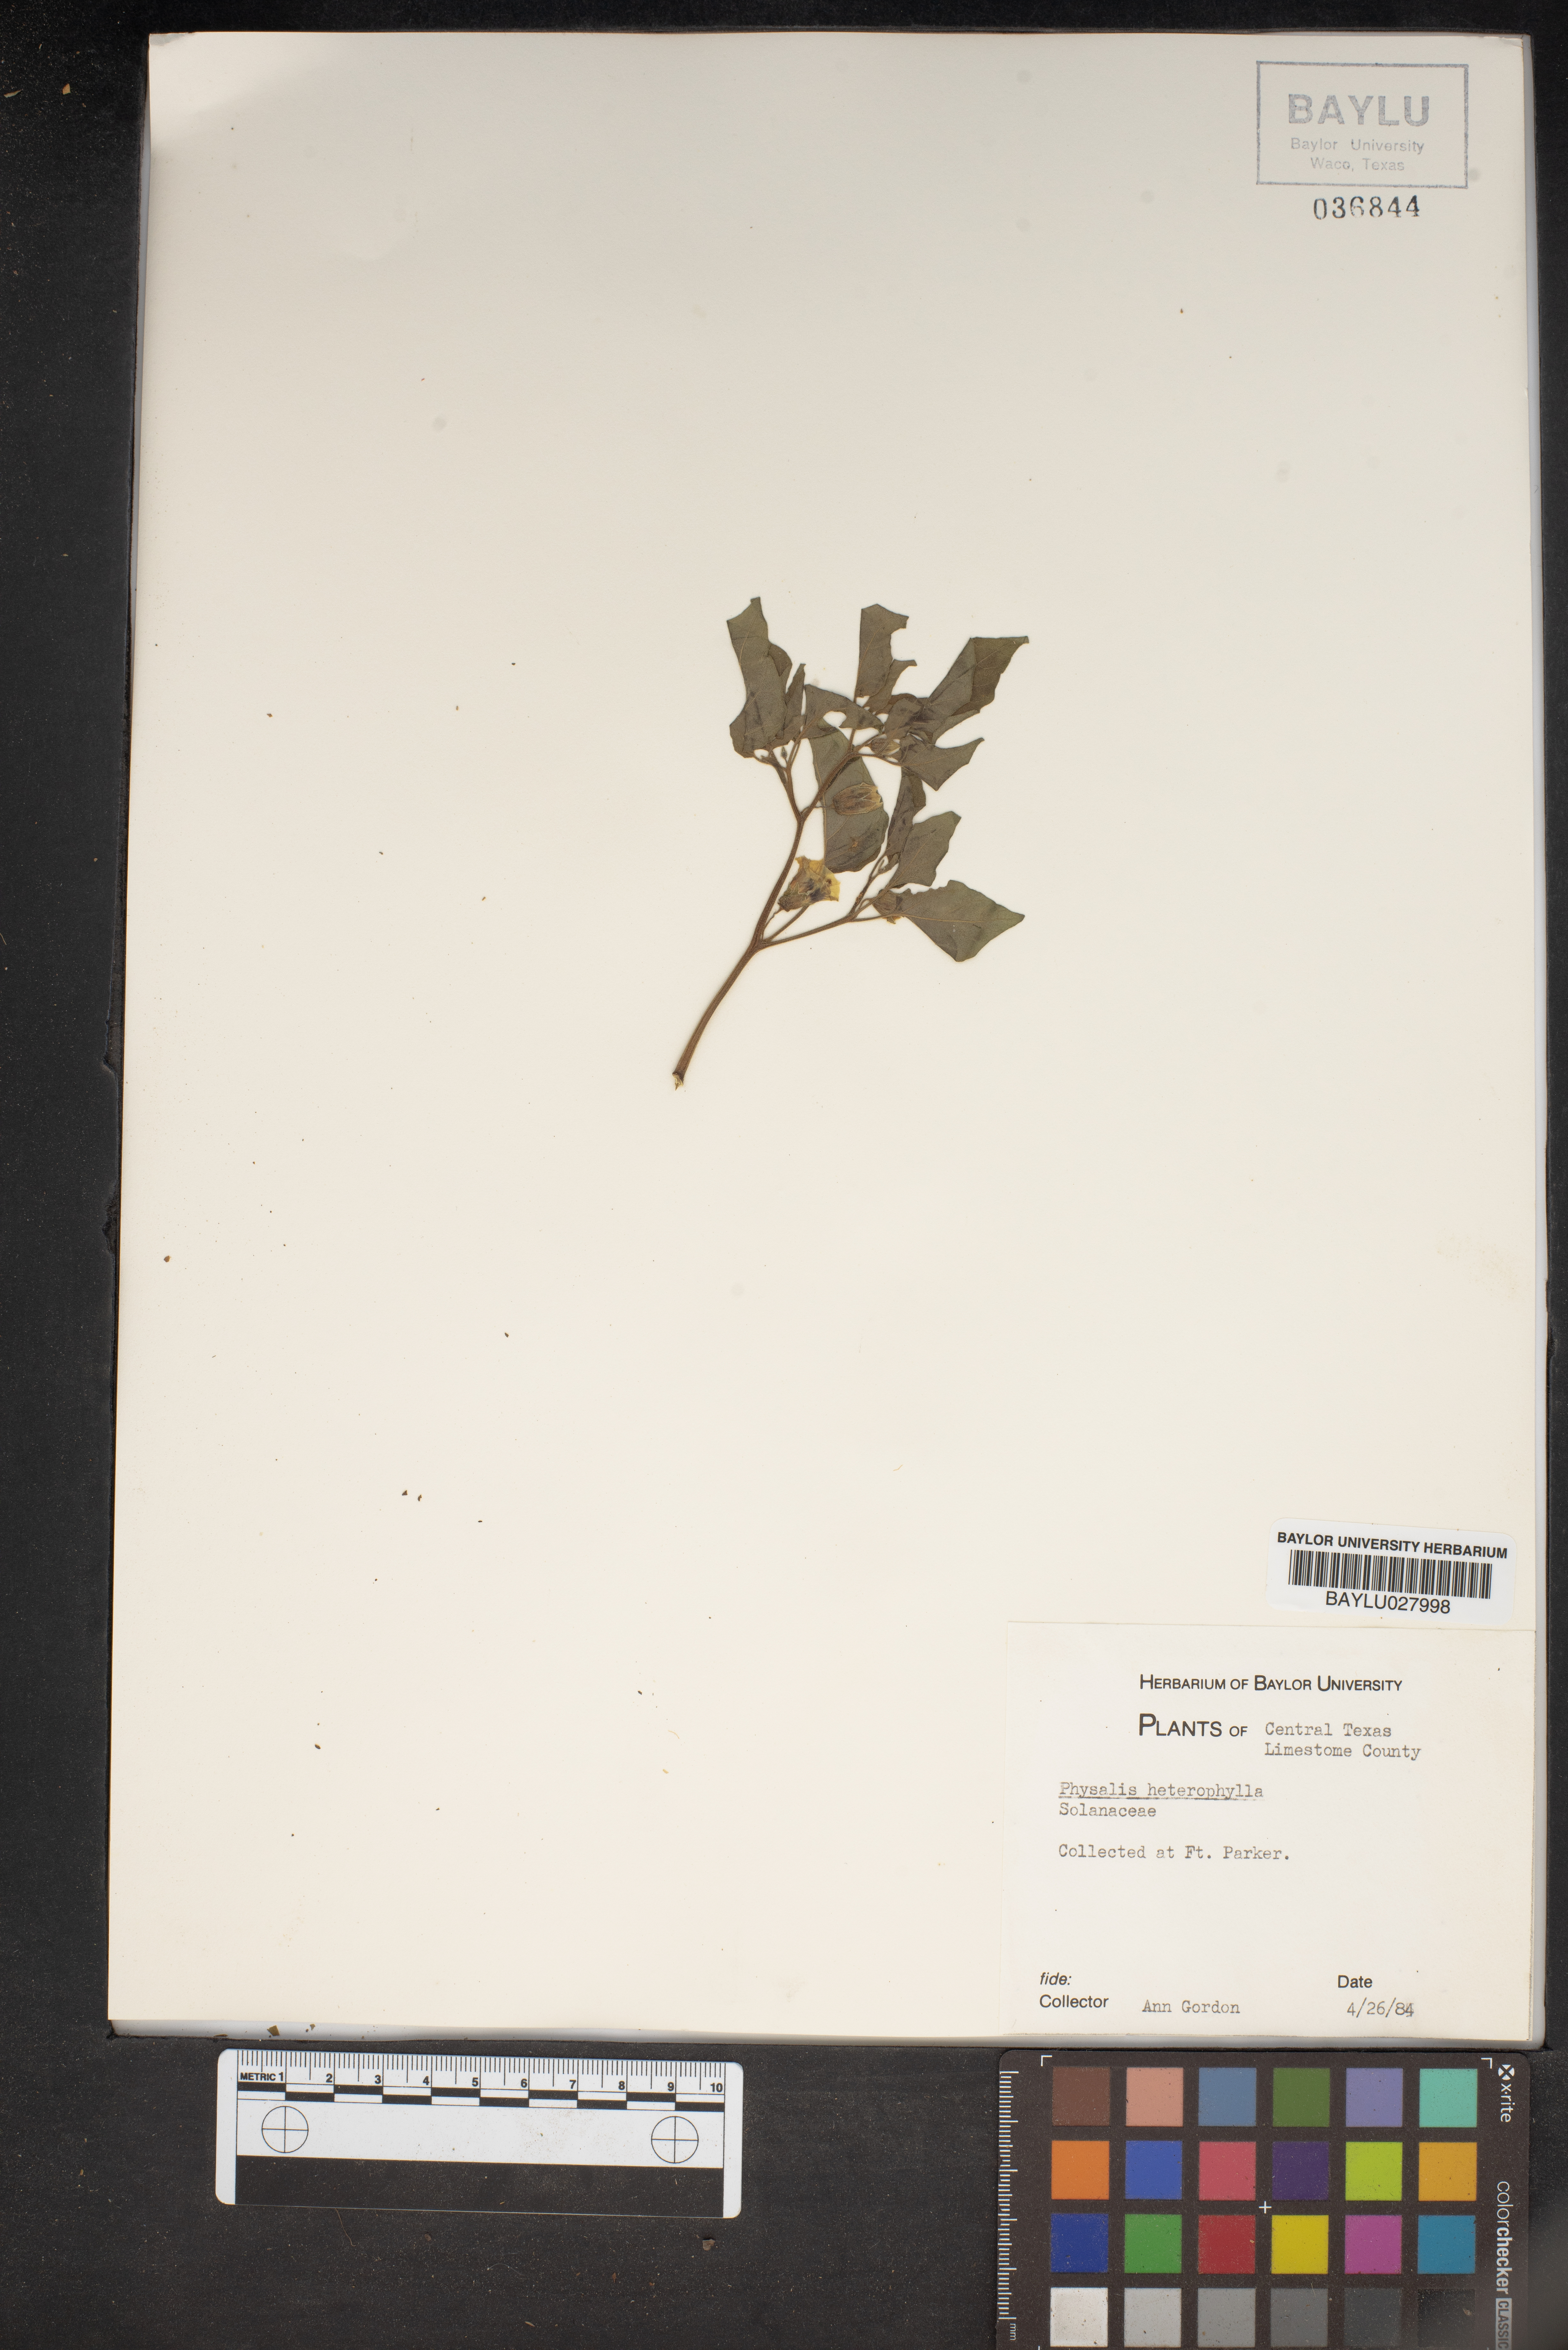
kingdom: Plantae
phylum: Tracheophyta
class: Magnoliopsida
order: Solanales
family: Solanaceae
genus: Physalis
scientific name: Physalis heterophylla
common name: Clammy ground-cherry
